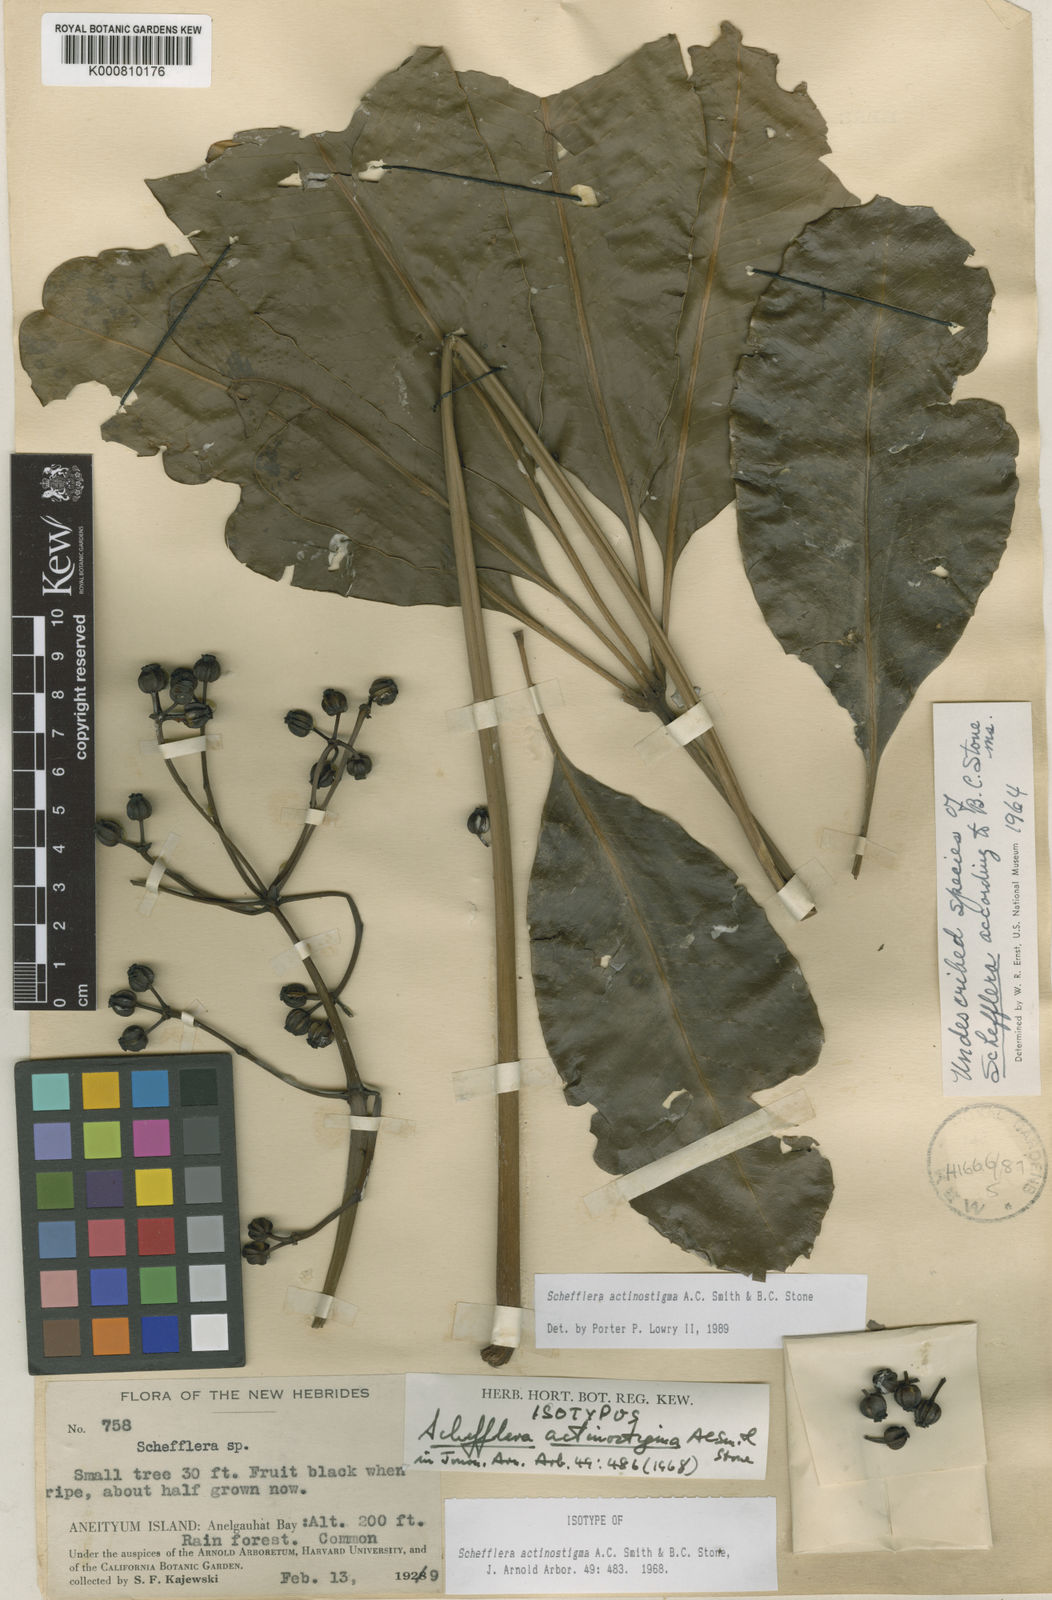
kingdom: Plantae
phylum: Tracheophyta
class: Magnoliopsida
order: Apiales
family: Araliaceae
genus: Plerandra
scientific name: Plerandra actinostigma
